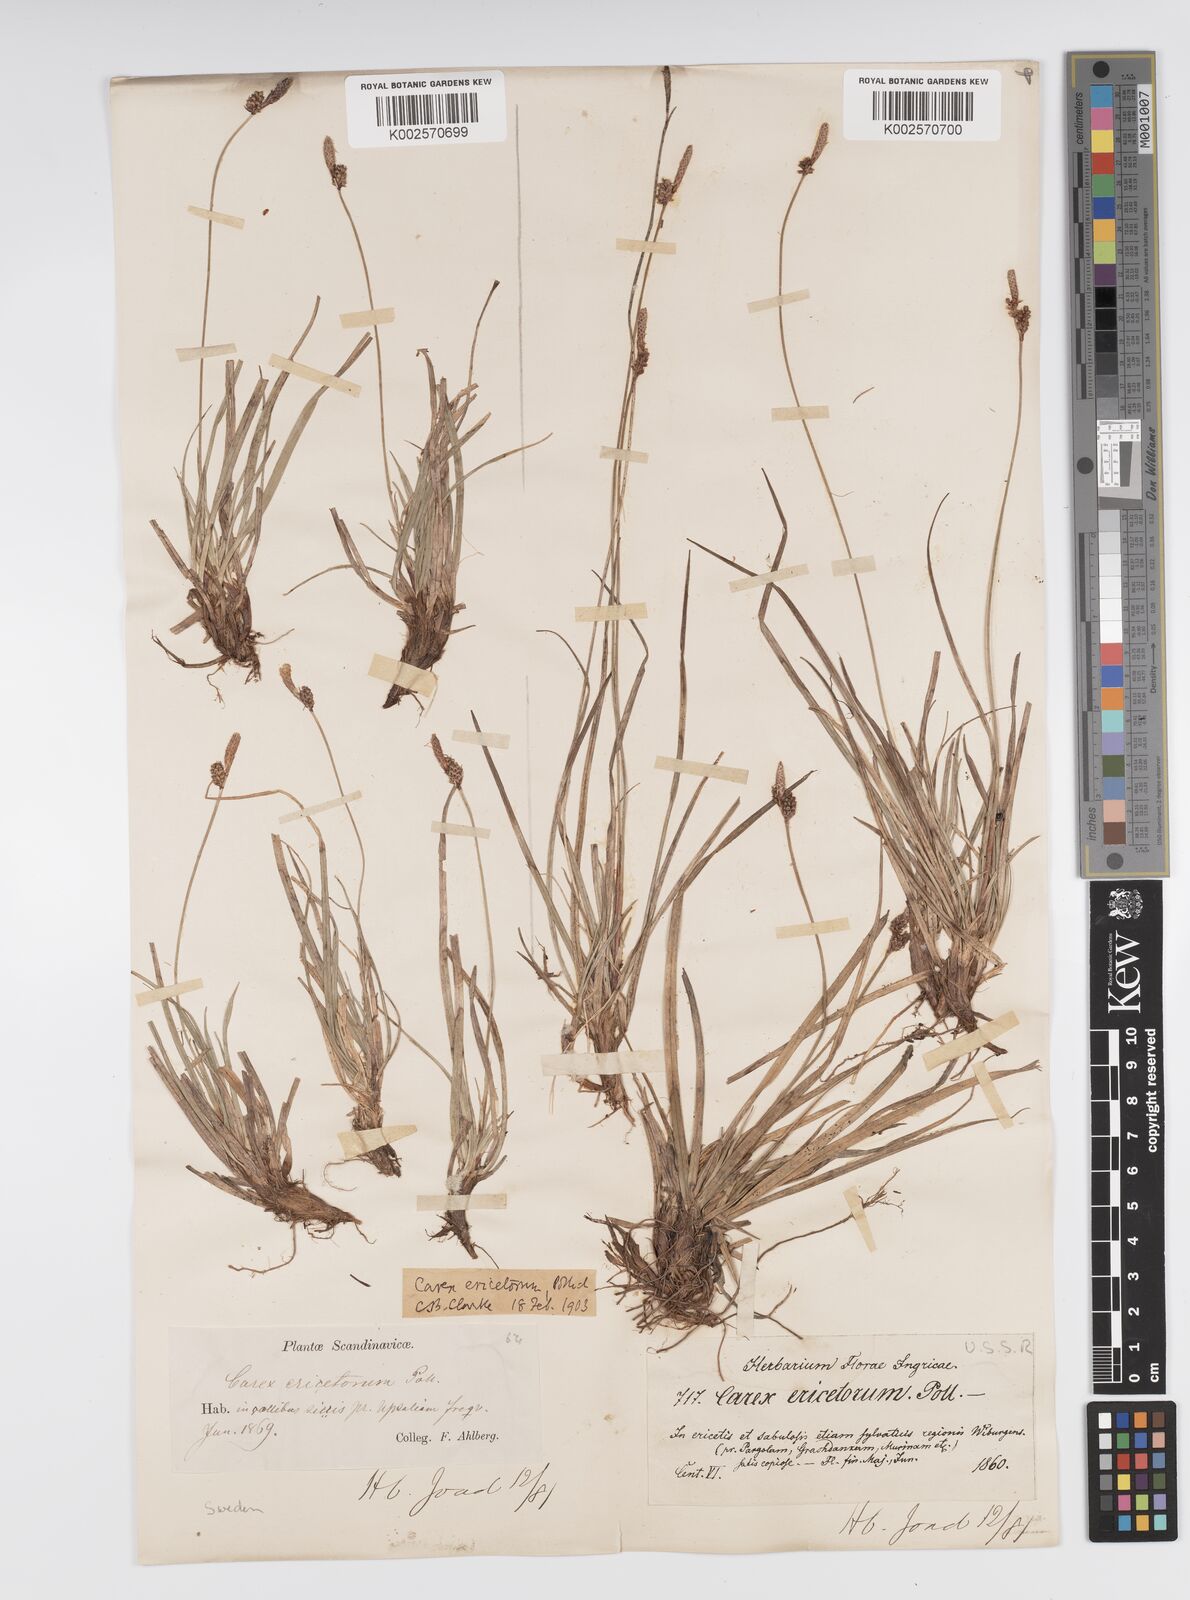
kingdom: Plantae
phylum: Tracheophyta
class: Liliopsida
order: Poales
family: Cyperaceae
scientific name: Cyperaceae
